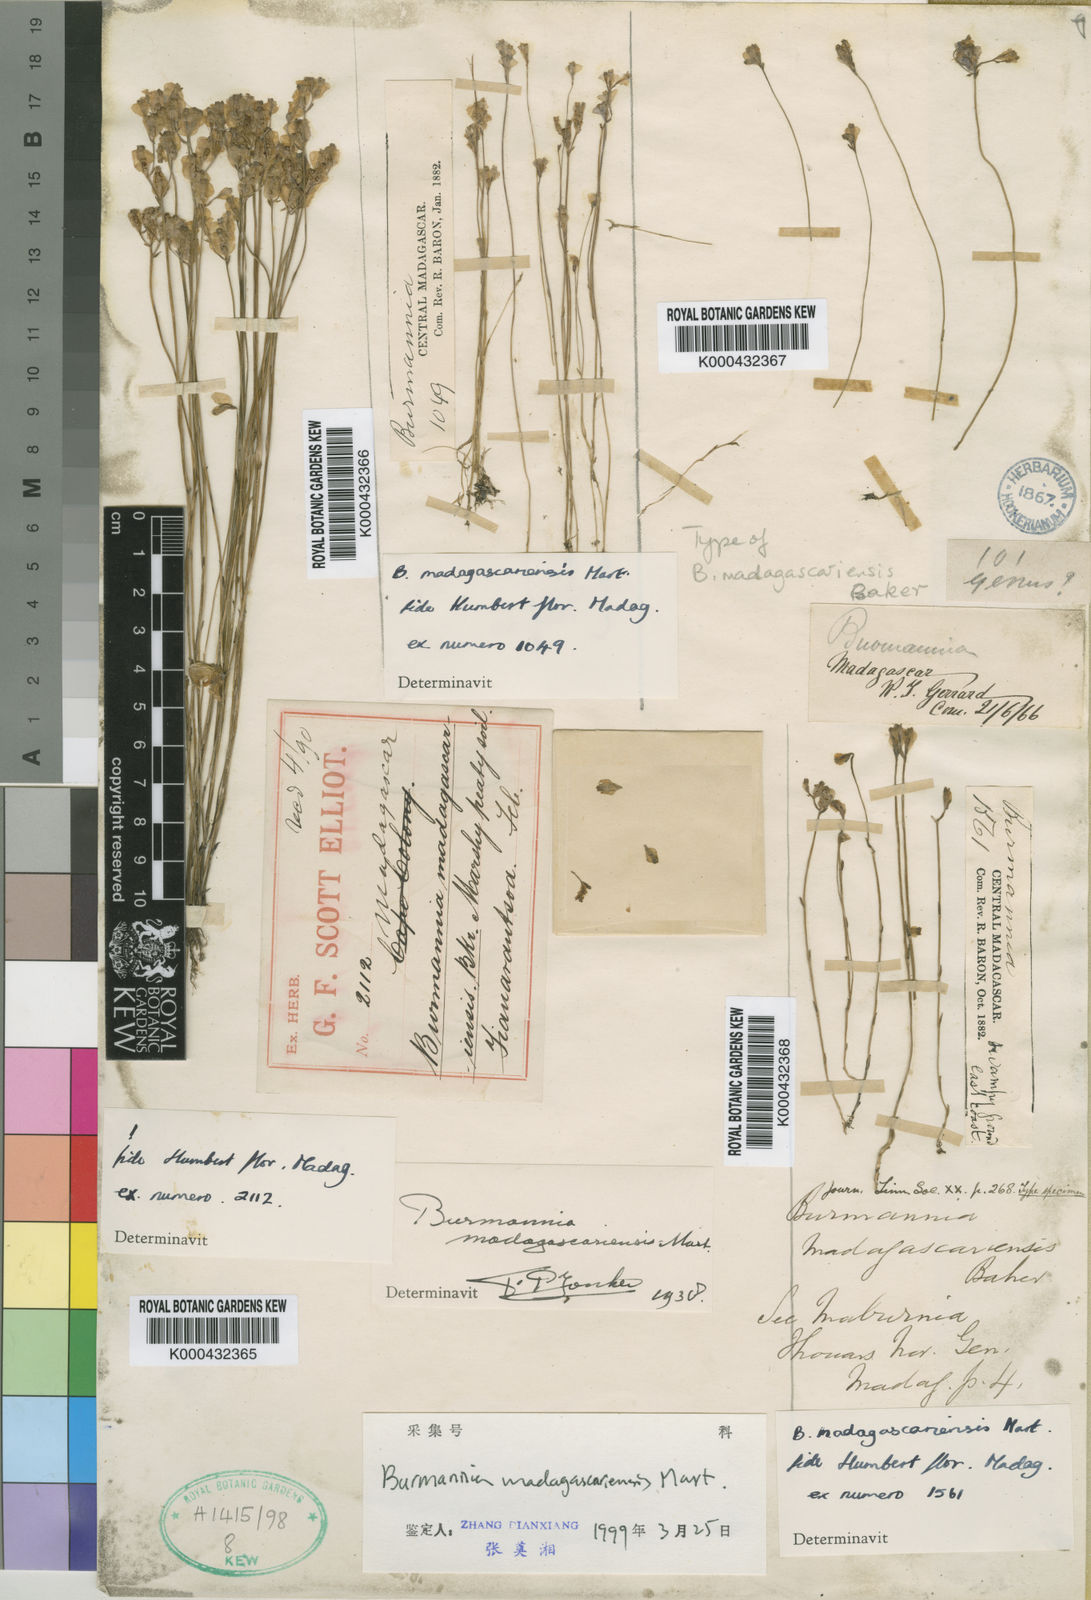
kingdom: Plantae
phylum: Tracheophyta
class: Liliopsida
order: Dioscoreales
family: Burmanniaceae
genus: Burmannia
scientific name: Burmannia
